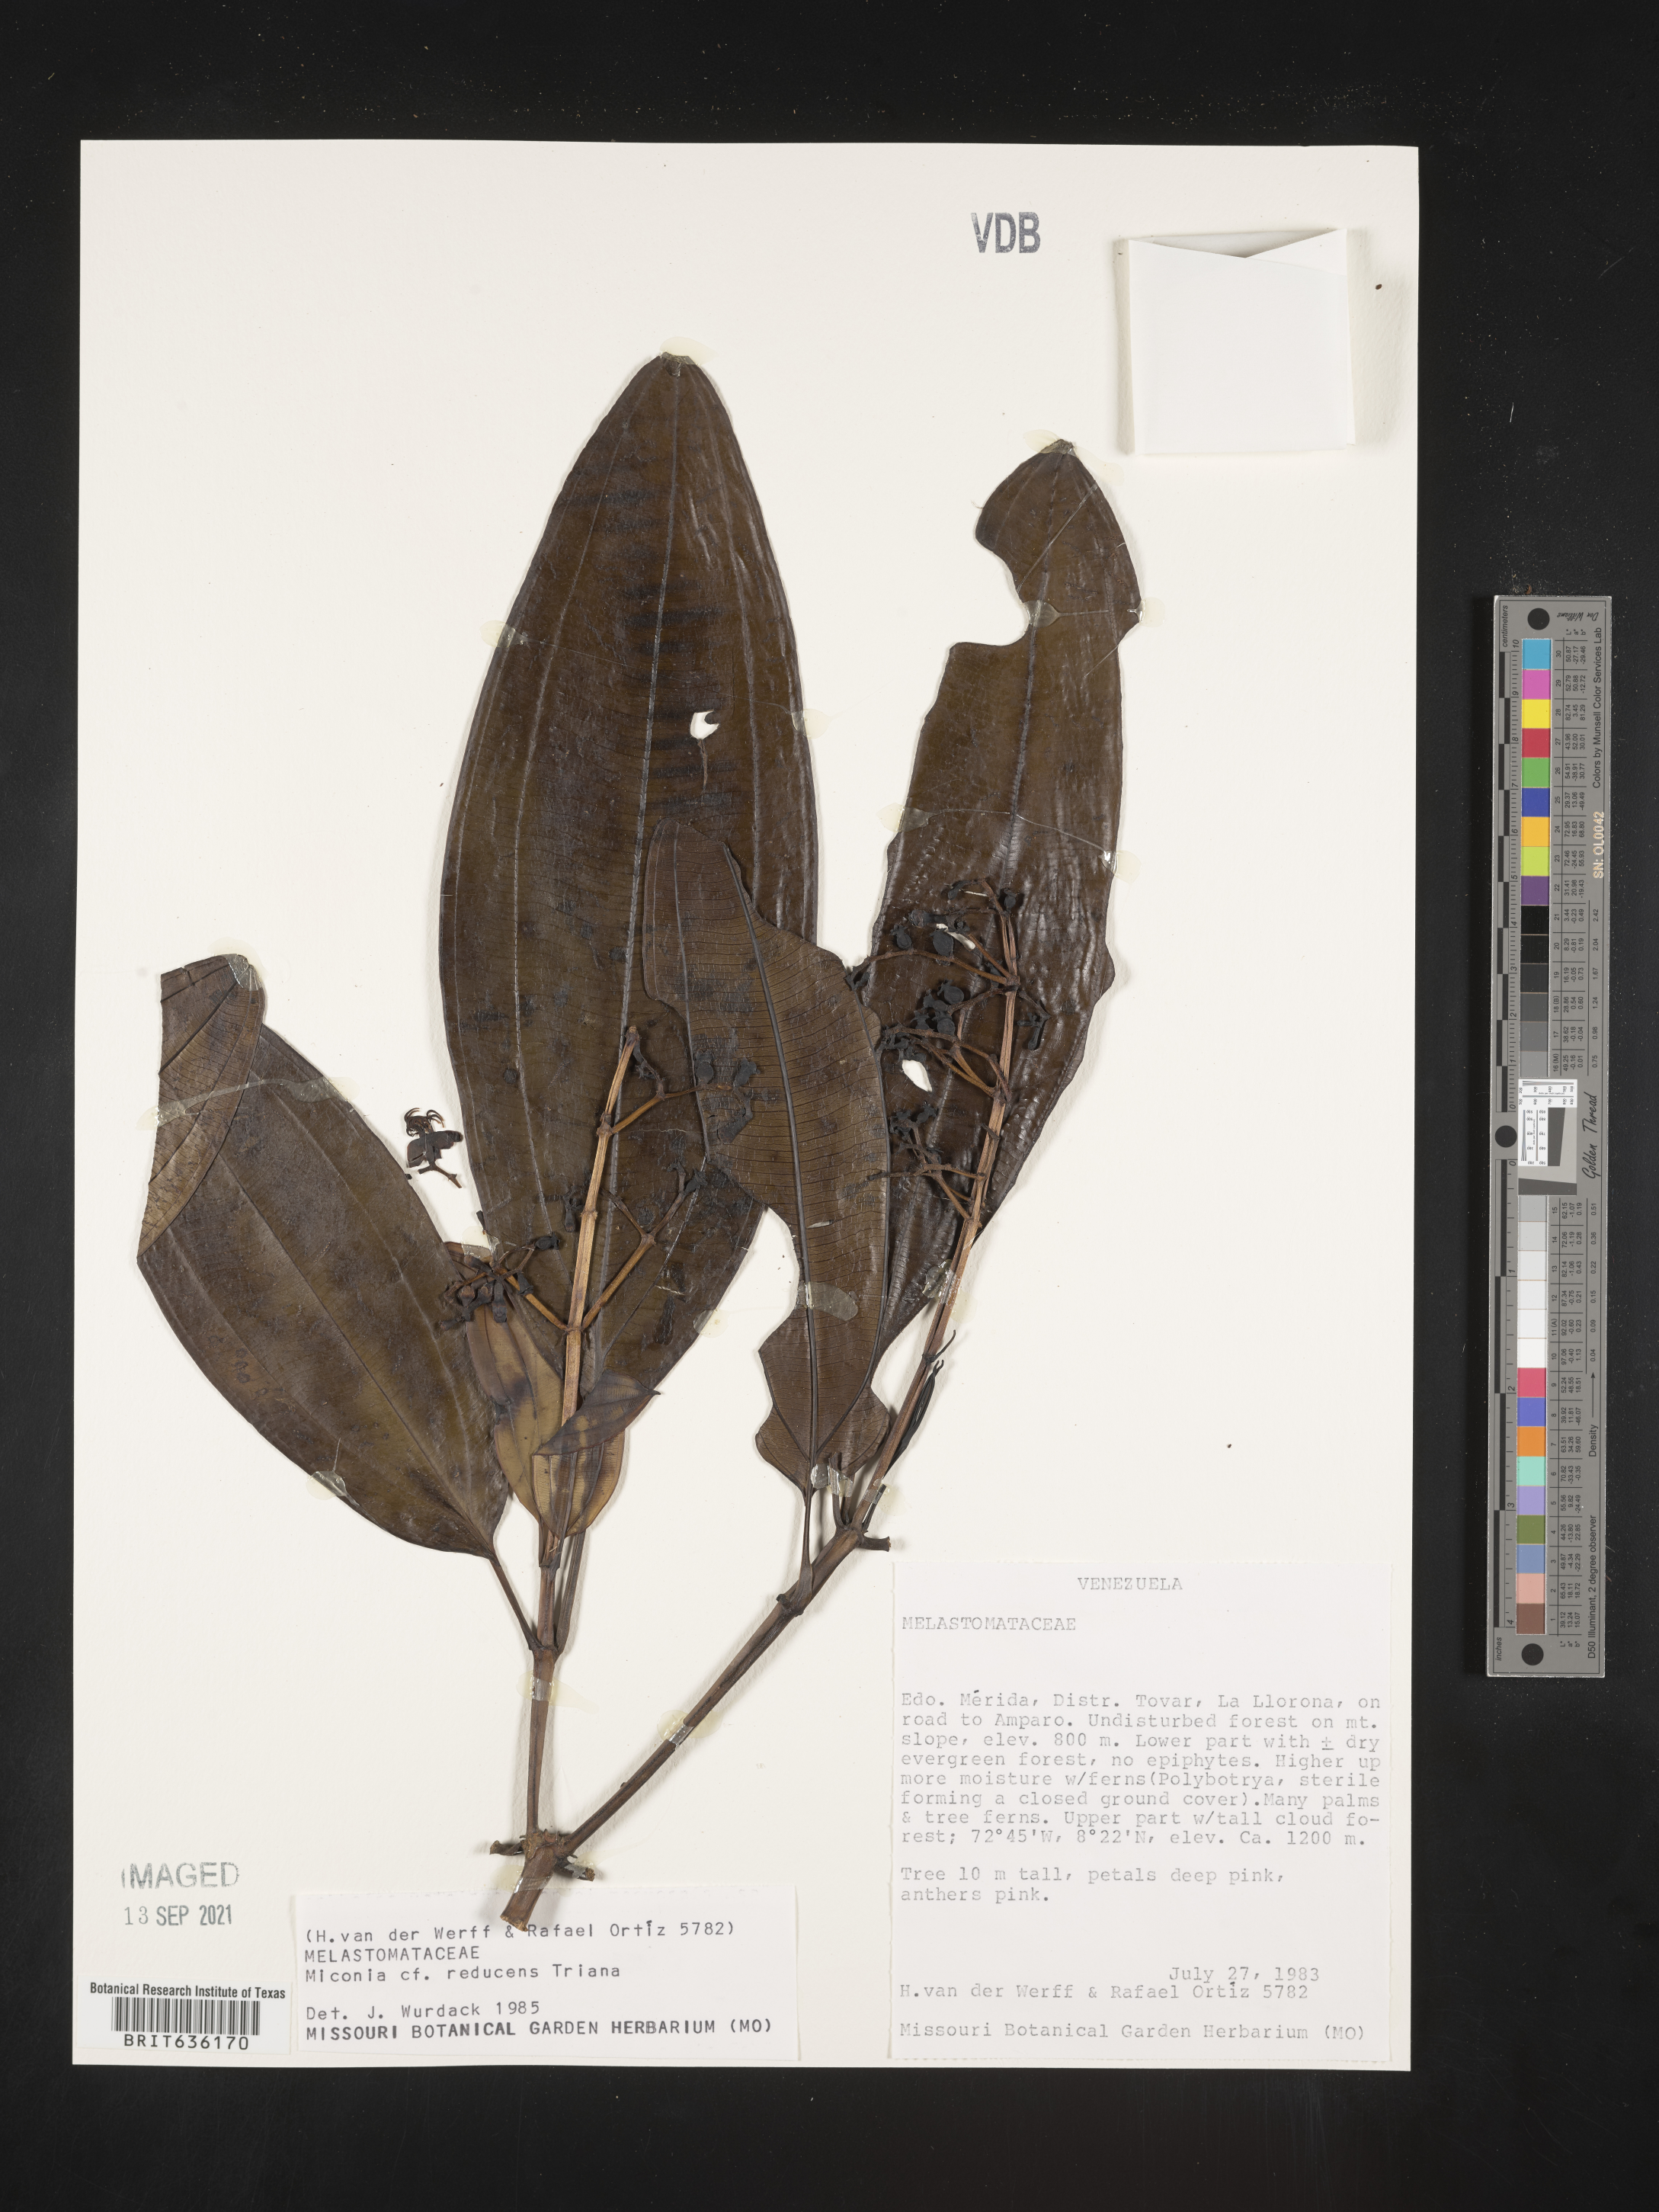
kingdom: Plantae
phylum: Tracheophyta
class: Magnoliopsida
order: Myrtales
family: Melastomataceae
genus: Miconia
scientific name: Miconia
